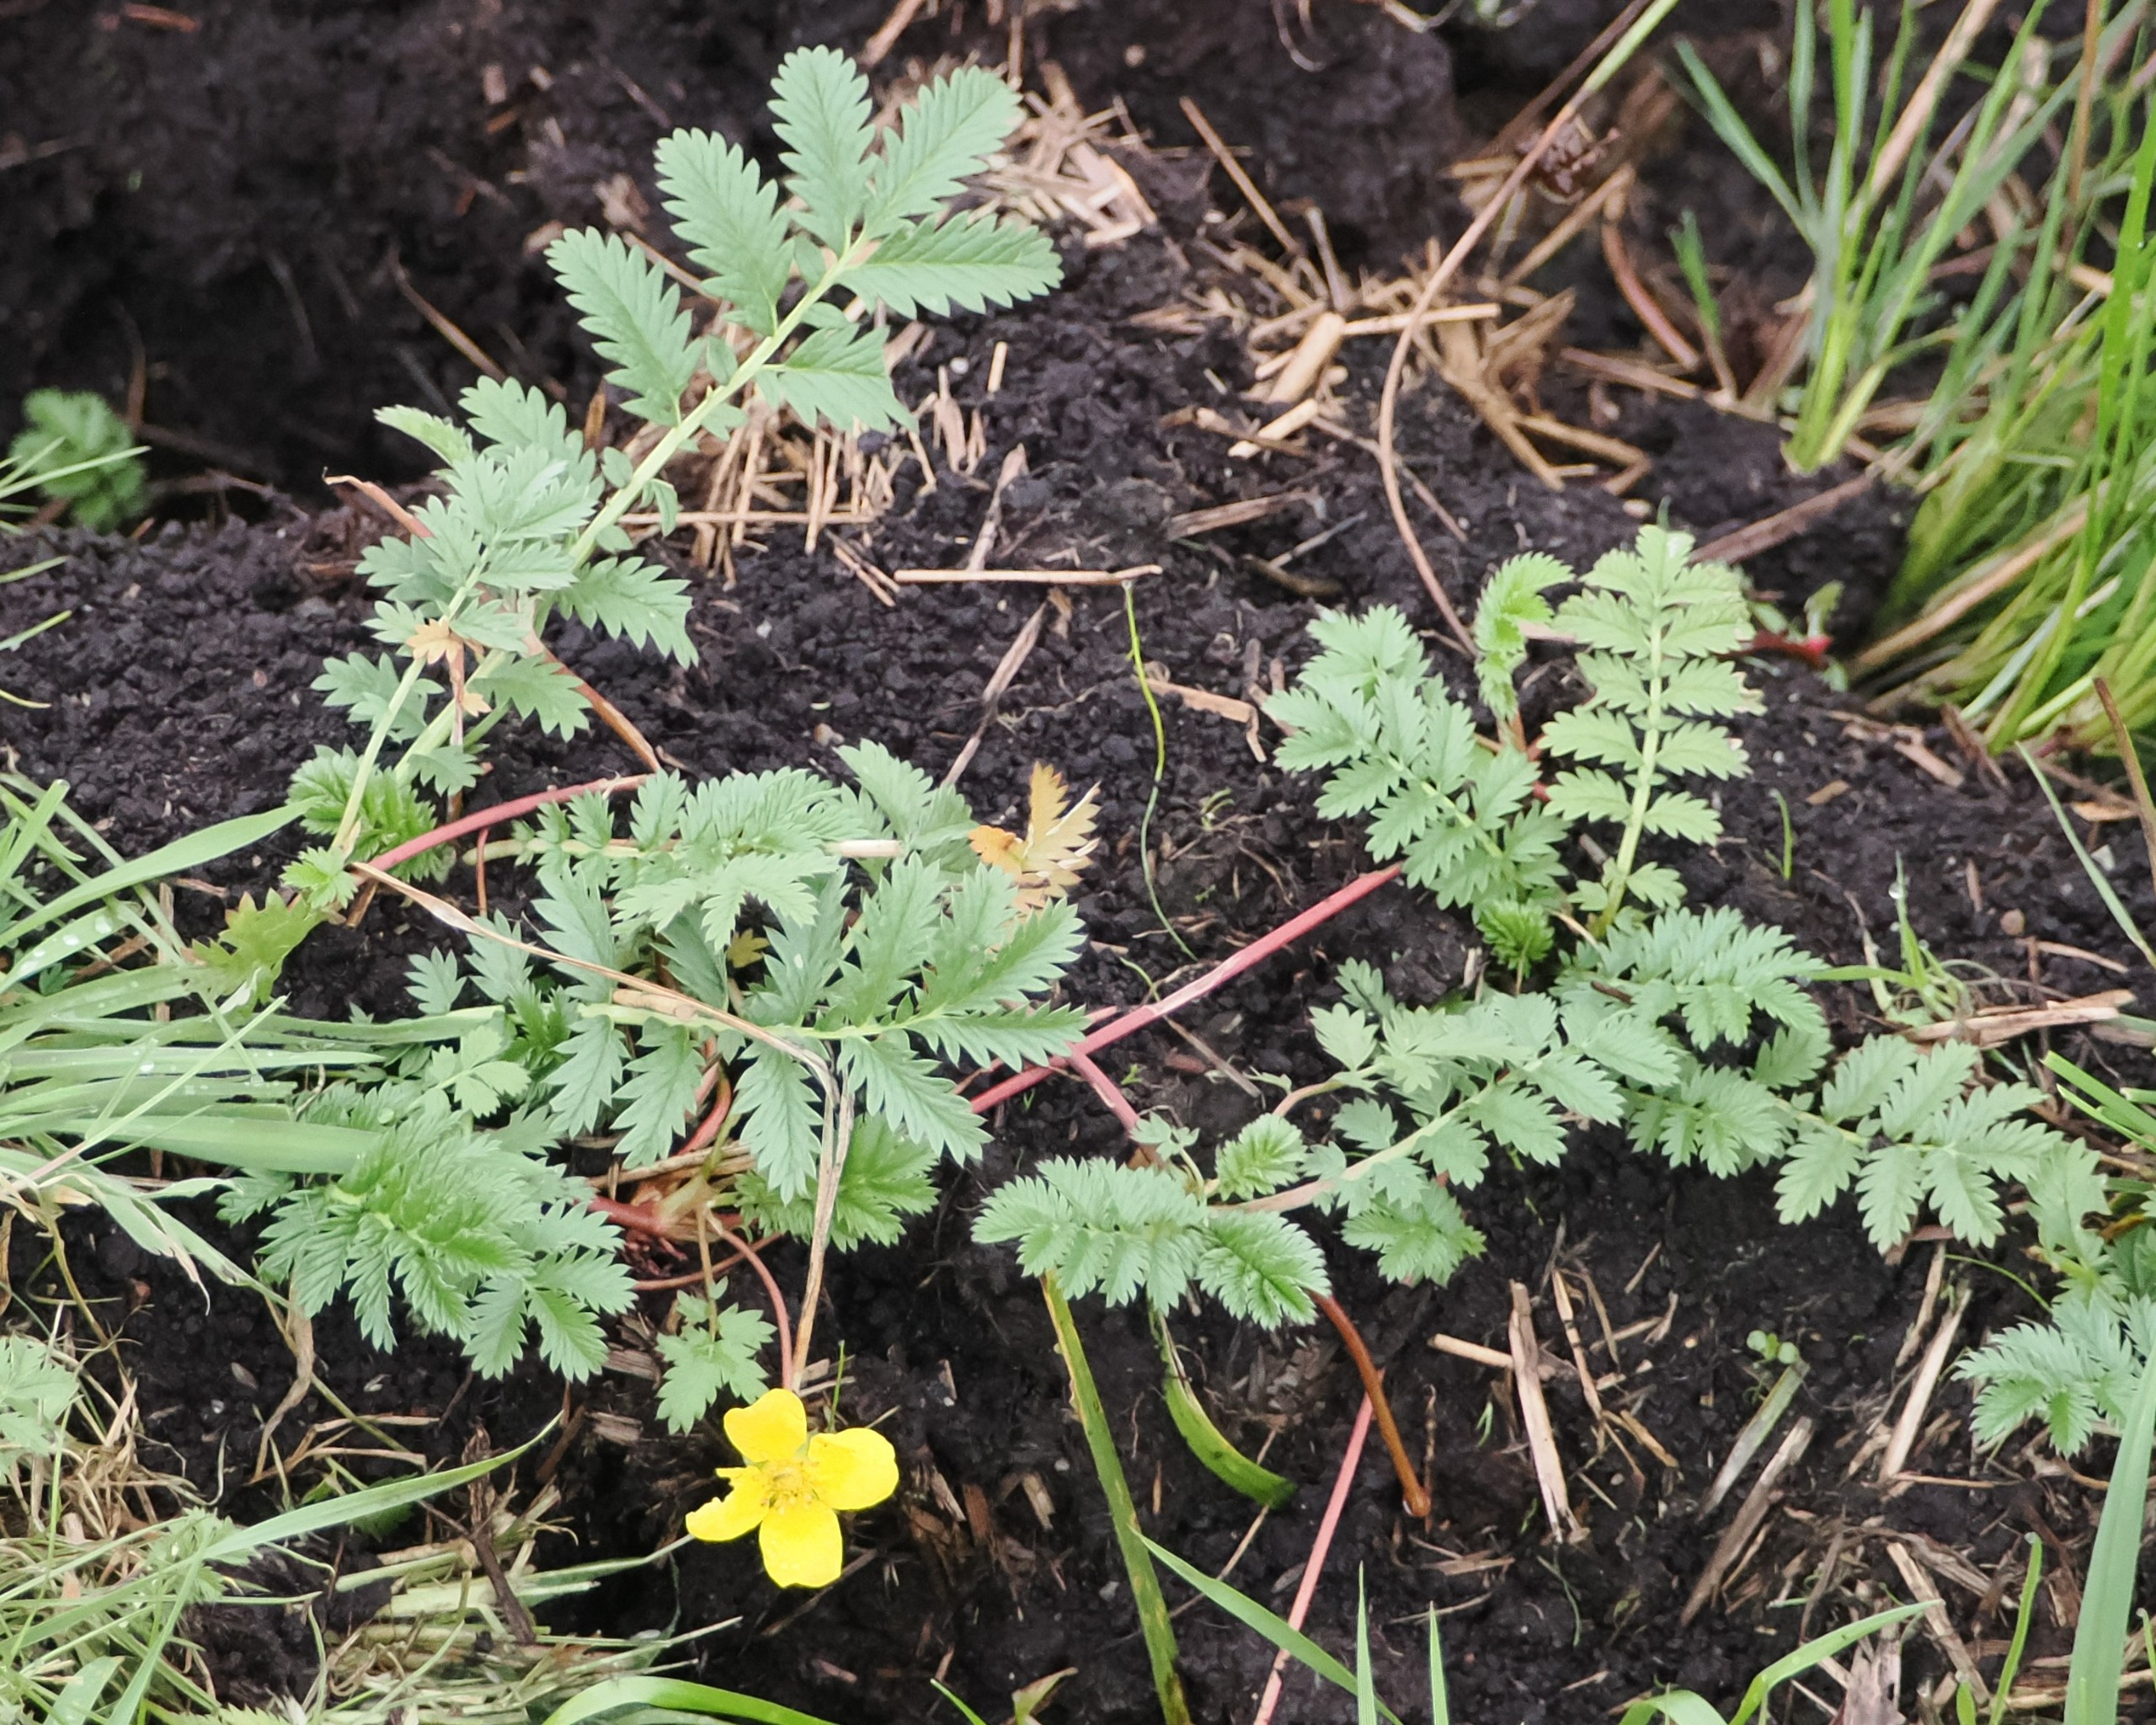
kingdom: Plantae
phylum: Tracheophyta
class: Magnoliopsida
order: Rosales
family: Rosaceae
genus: Argentina
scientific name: Argentina anserina
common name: Gåsepotentil
